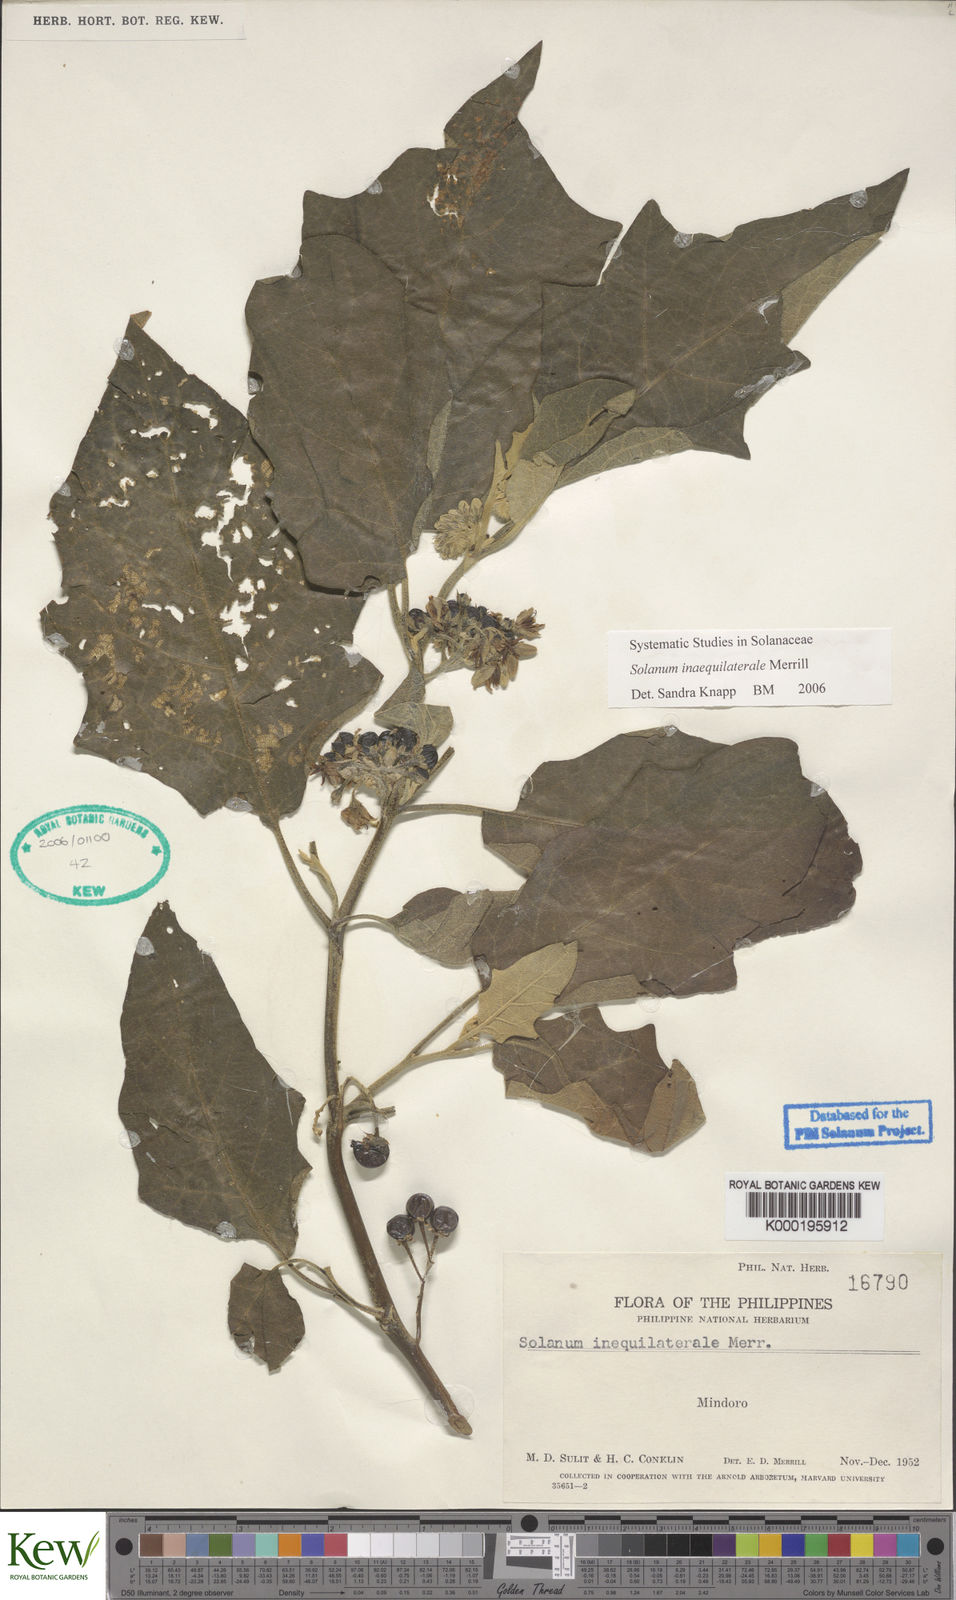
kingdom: Plantae
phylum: Tracheophyta
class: Magnoliopsida
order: Solanales
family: Solanaceae
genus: Solanum
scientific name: Solanum pseudosaponaceum
